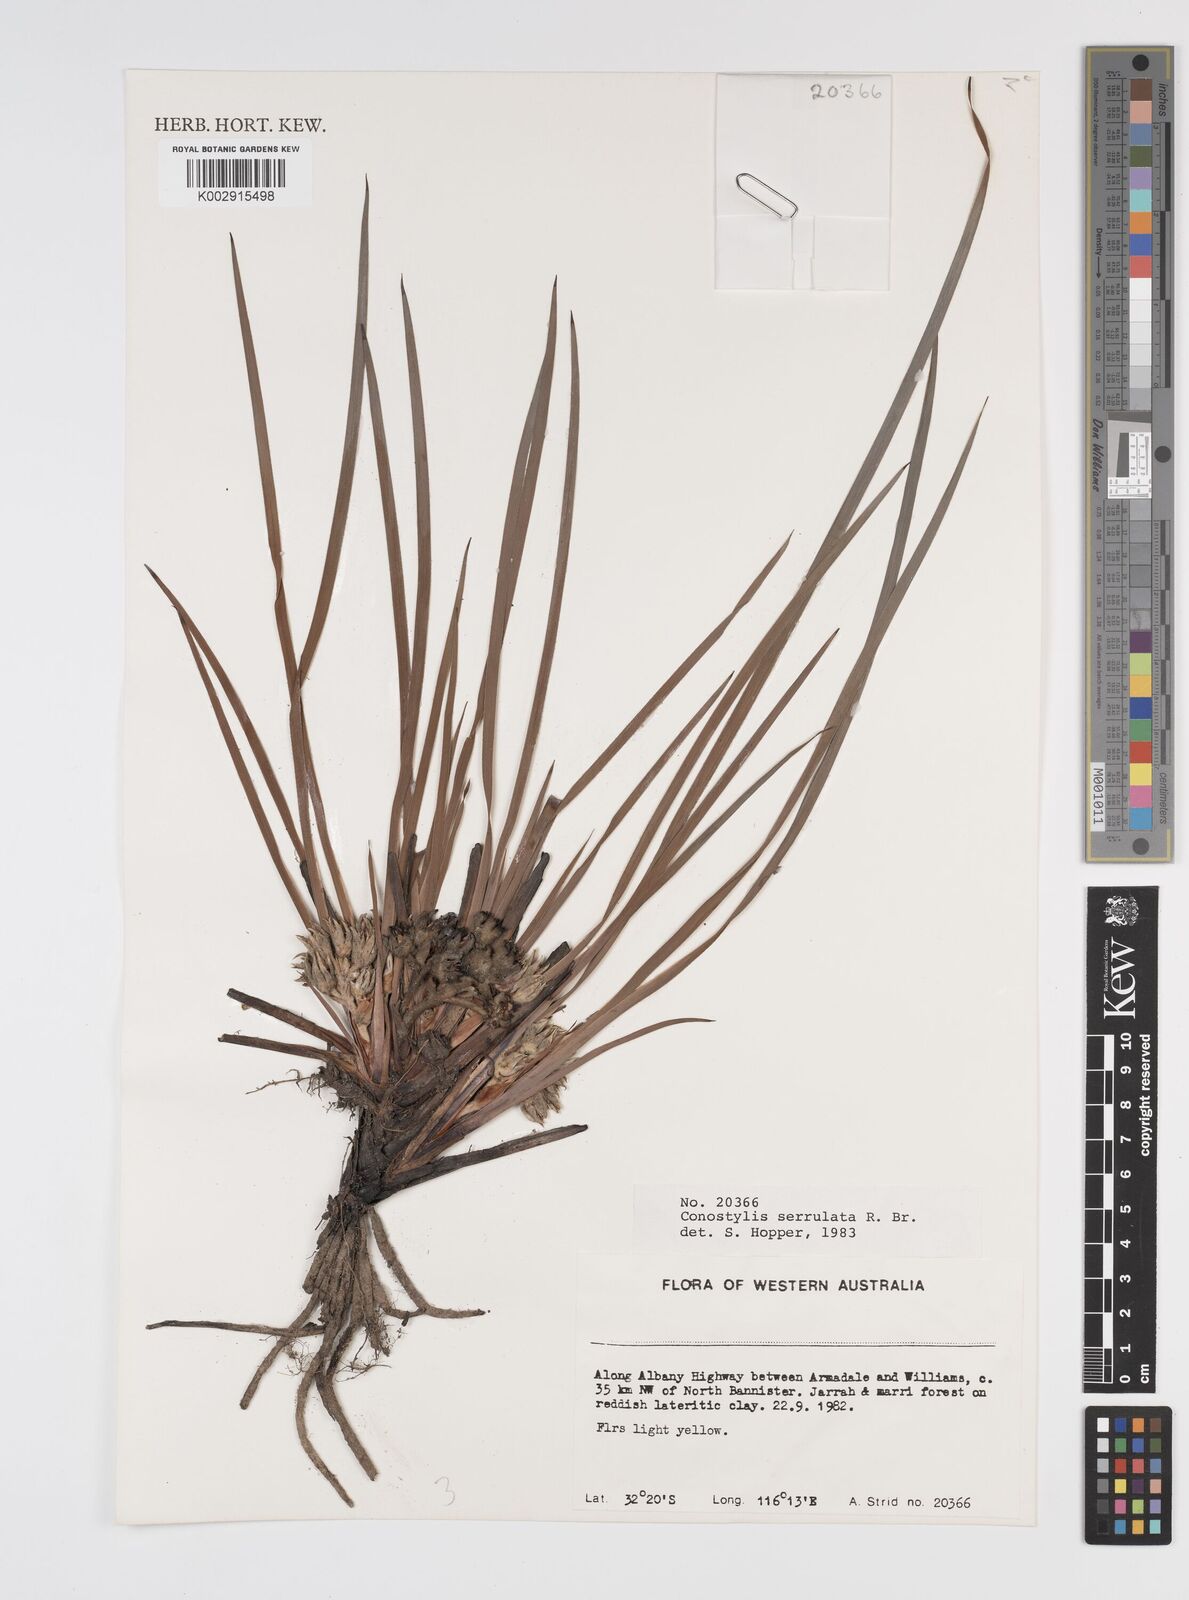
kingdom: Plantae
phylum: Tracheophyta
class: Liliopsida
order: Commelinales
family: Haemodoraceae
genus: Conostylis
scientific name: Conostylis serrulata
